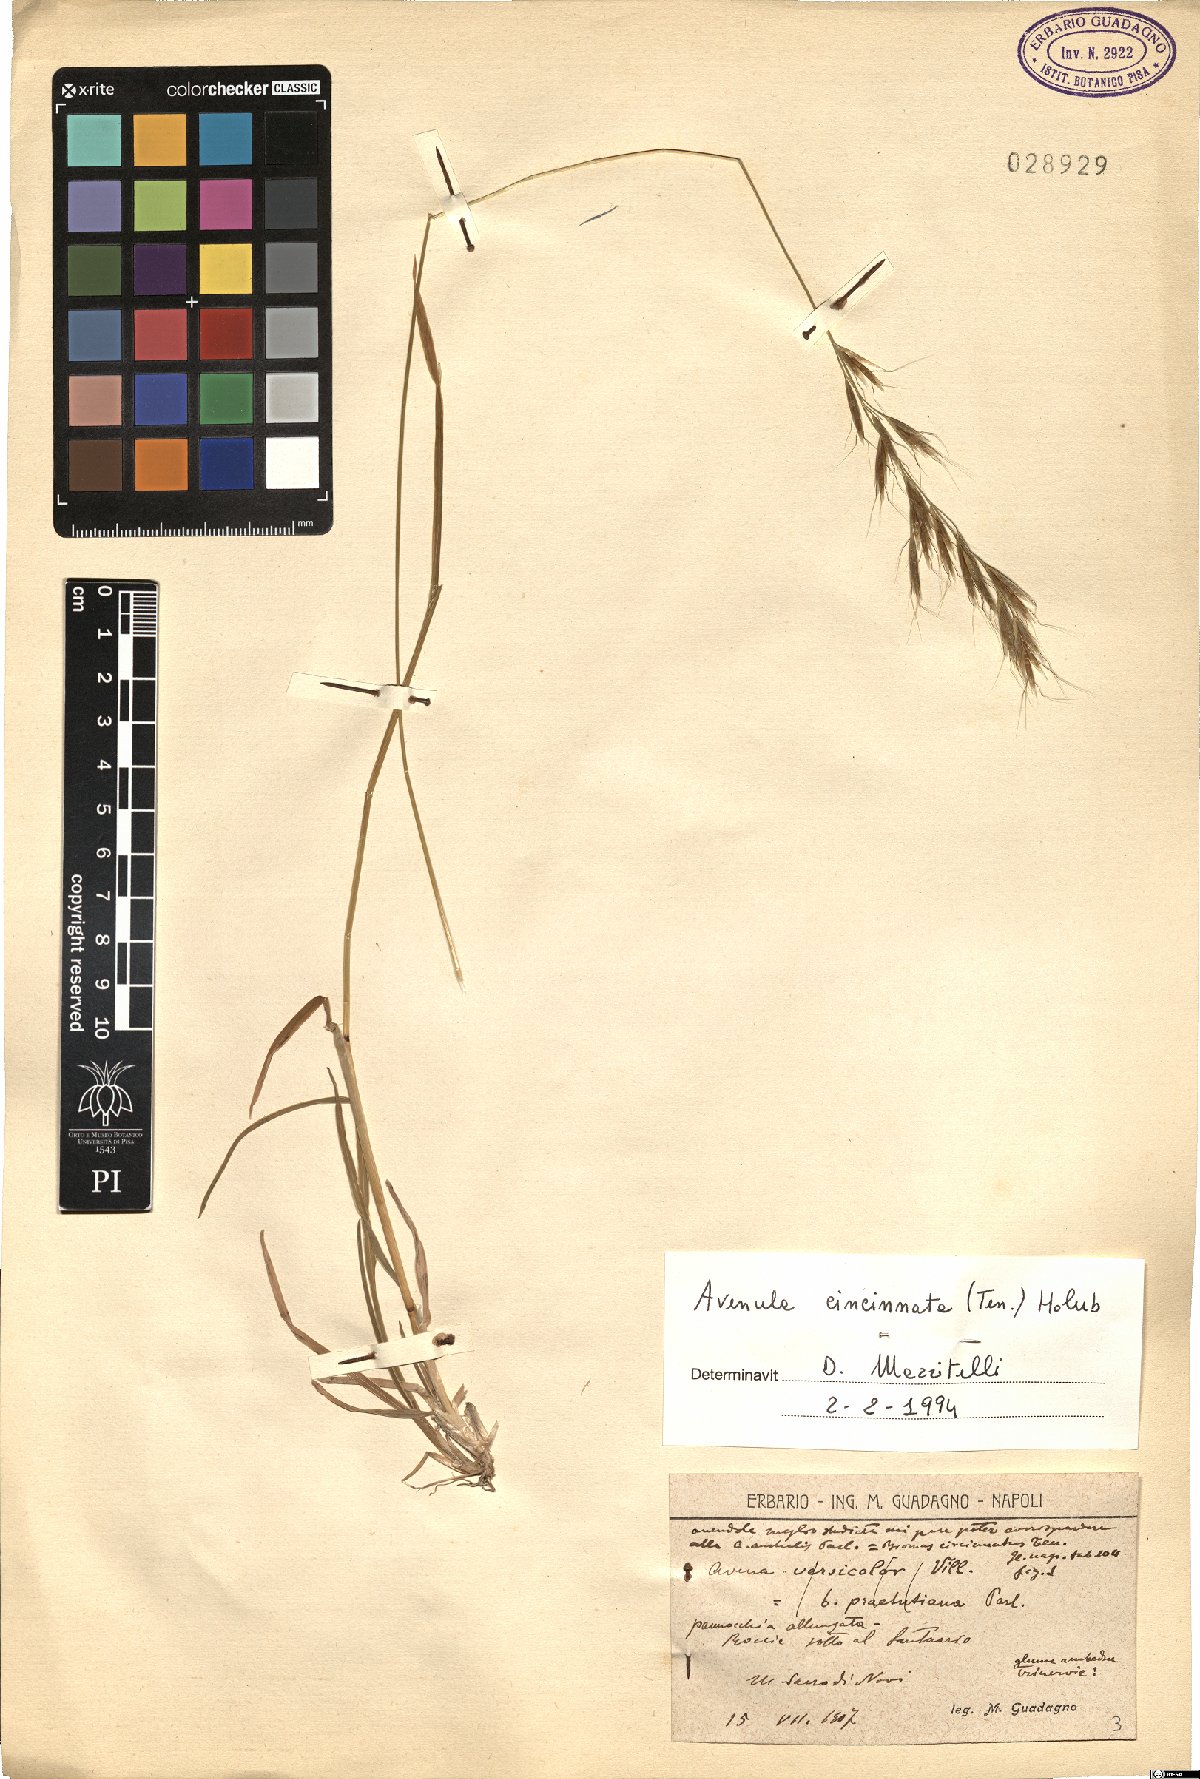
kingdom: Plantae
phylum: Tracheophyta
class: Liliopsida
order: Poales
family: Poaceae
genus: Helictochloa
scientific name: Helictochloa cincinnata
